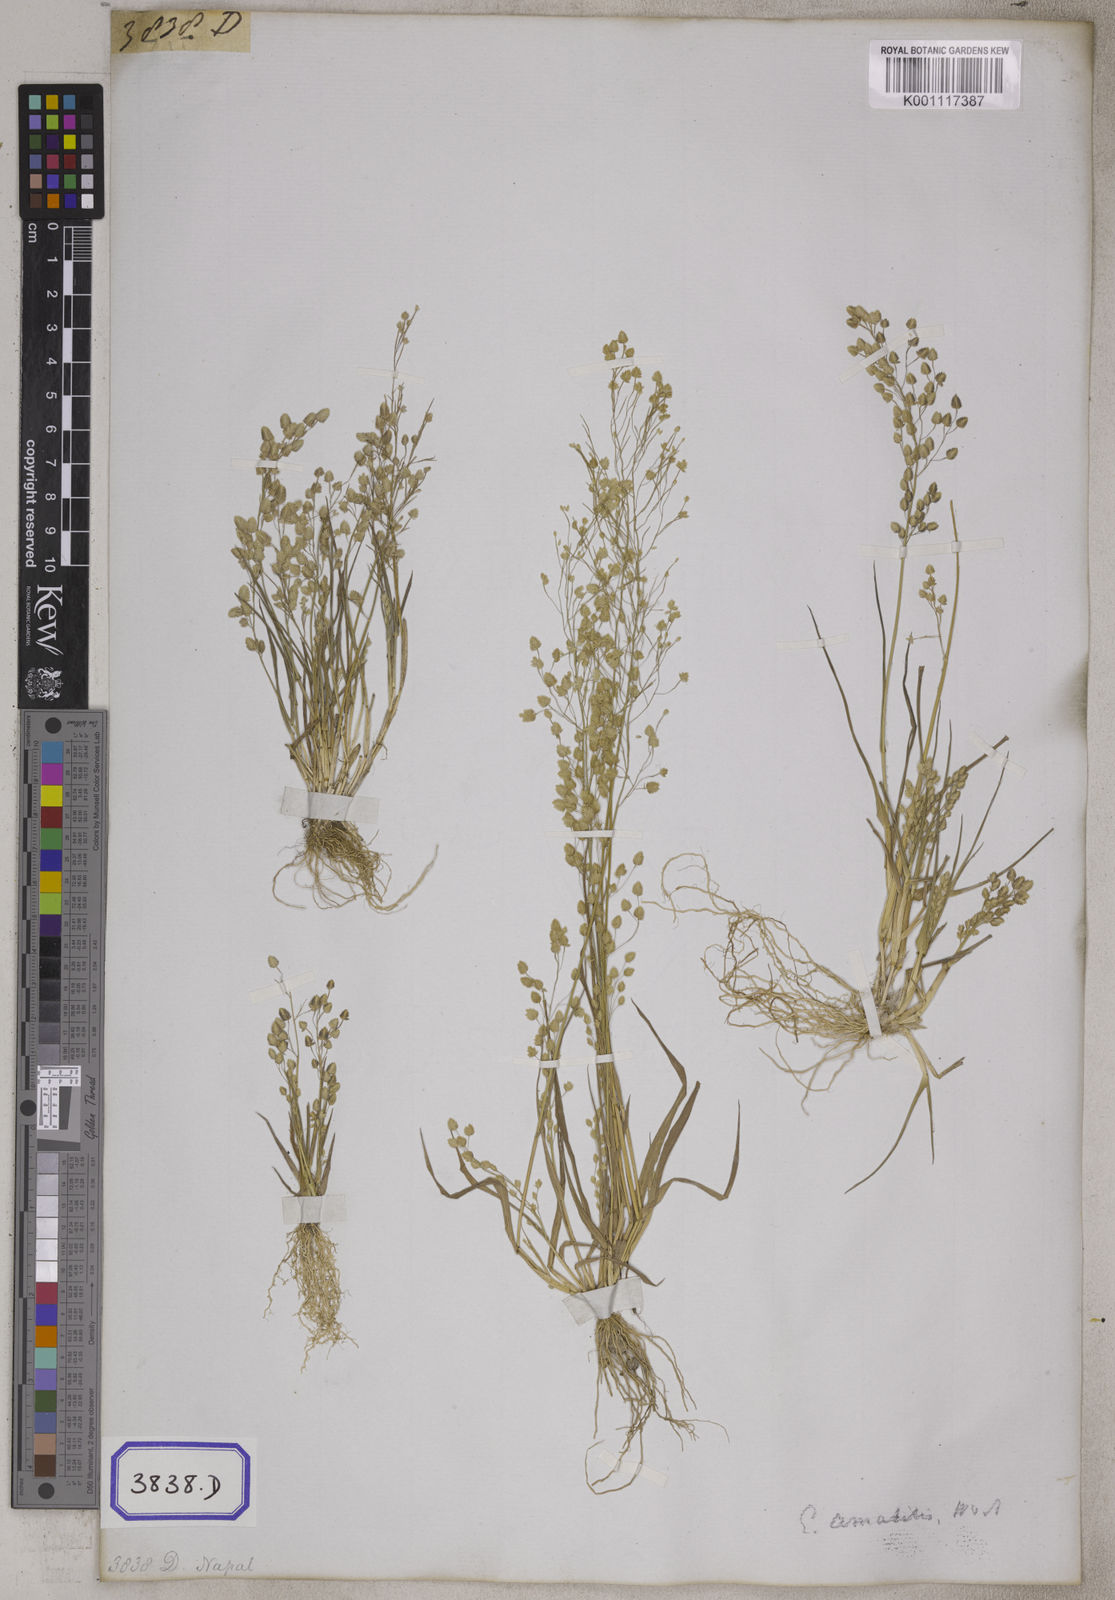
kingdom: Plantae
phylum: Tracheophyta
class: Liliopsida
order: Poales
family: Poaceae
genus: Eragrostis
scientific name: Eragrostis
